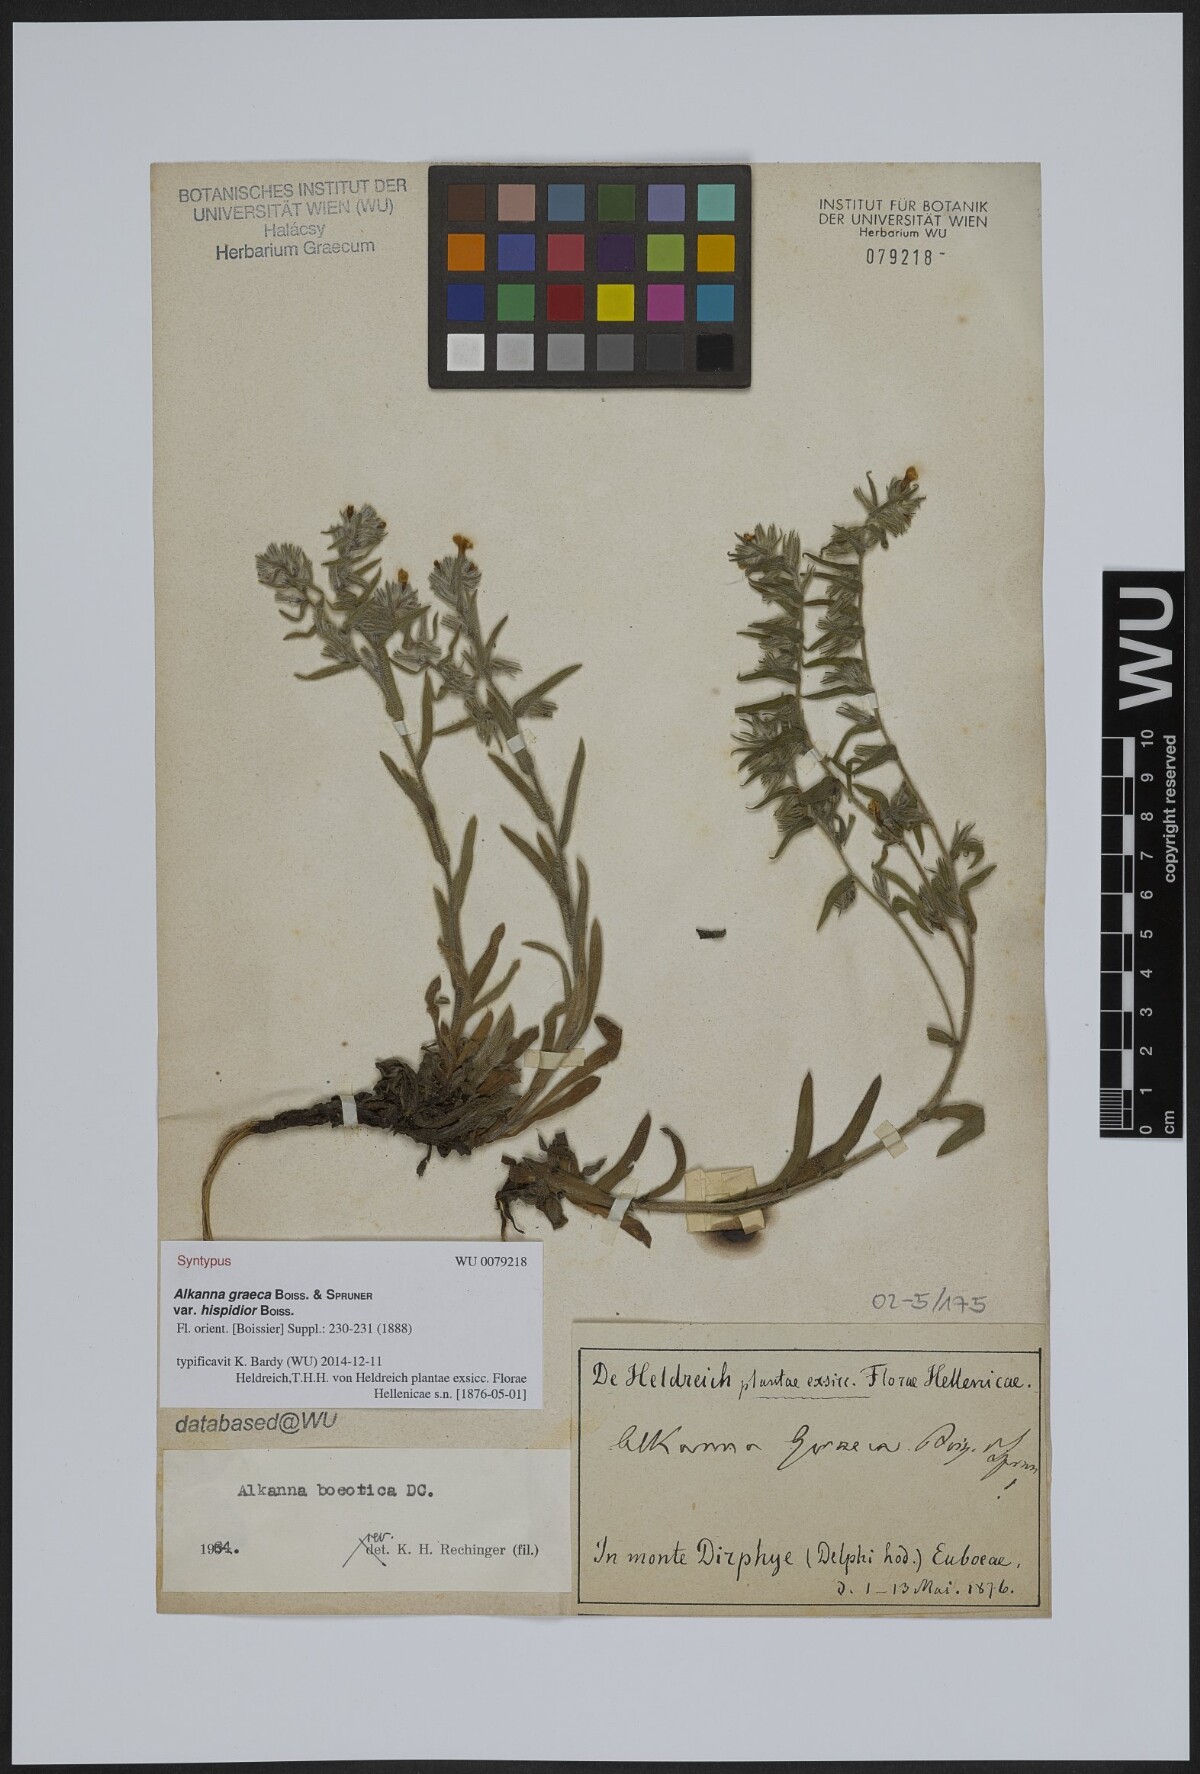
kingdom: Plantae
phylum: Tracheophyta
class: Magnoliopsida
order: Boraginales
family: Boraginaceae
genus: Alkanna
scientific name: Alkanna graeca
